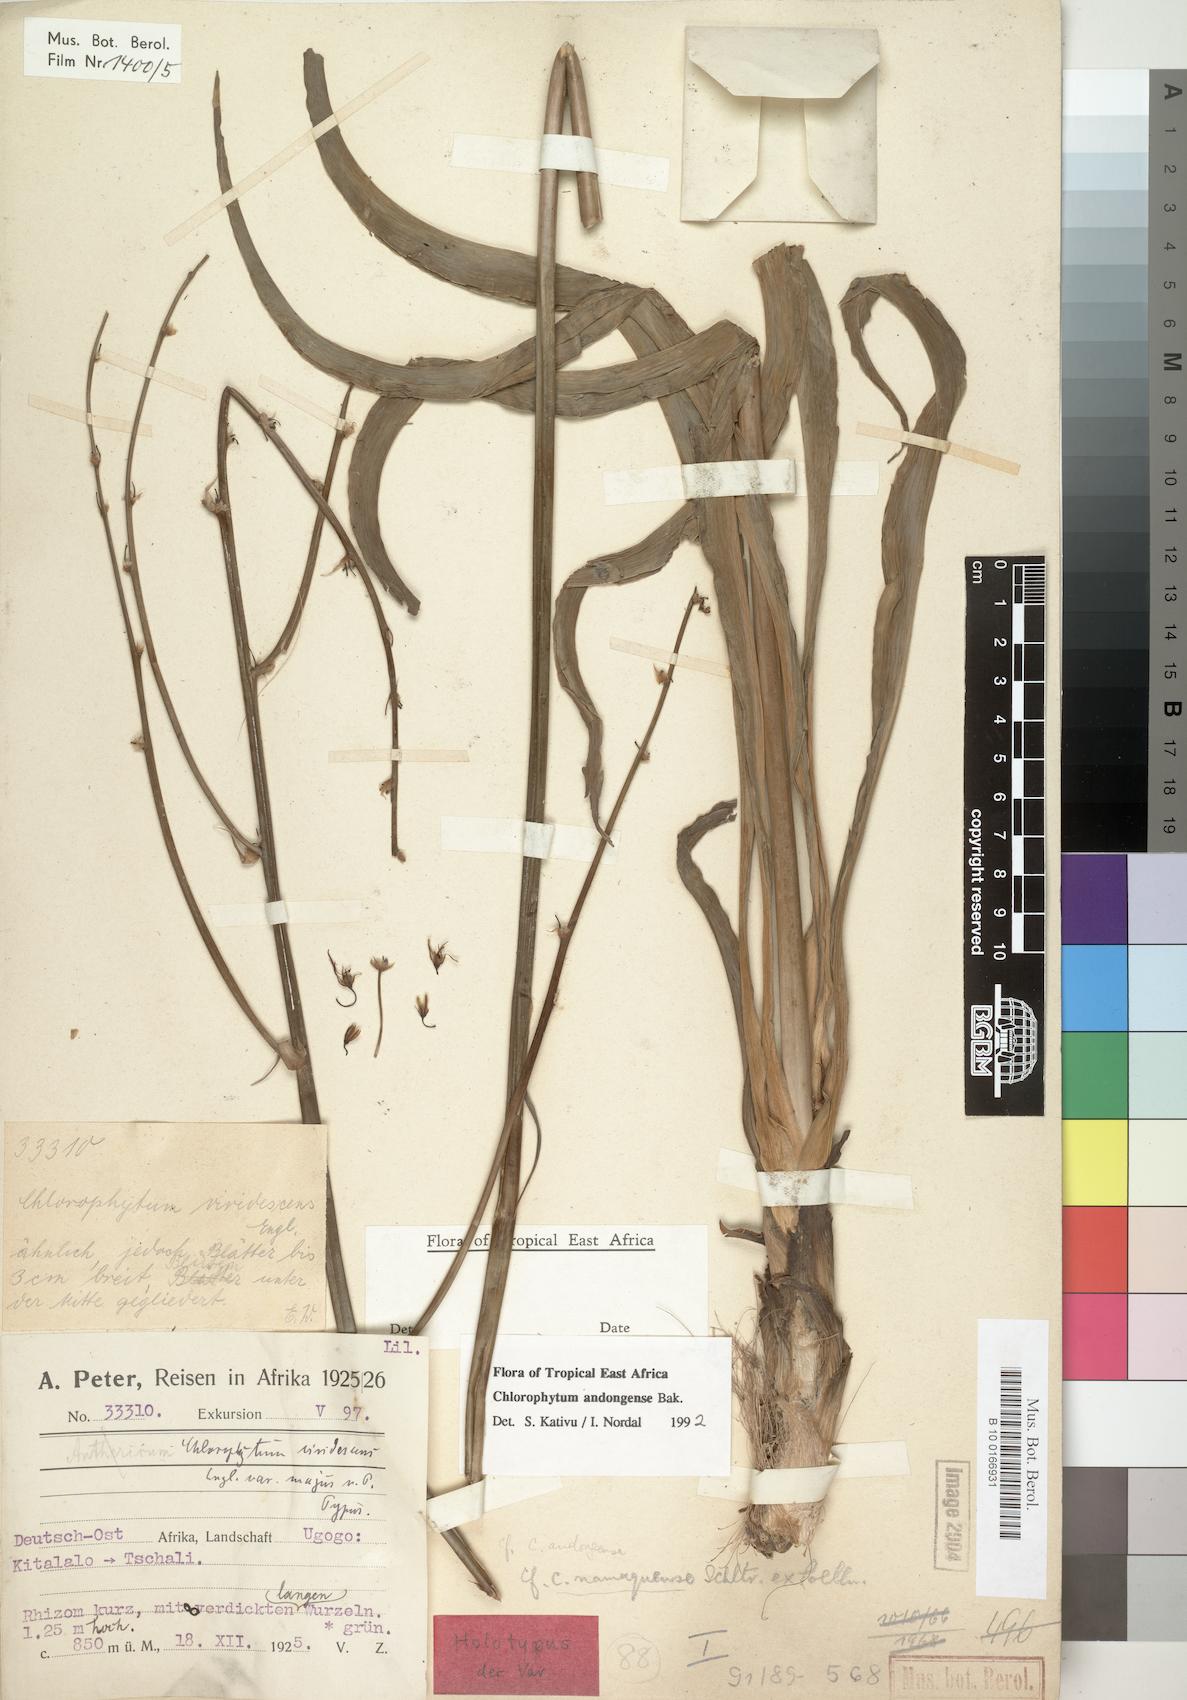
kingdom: Plantae
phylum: Tracheophyta
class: Liliopsida
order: Asparagales
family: Asparagaceae
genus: Chlorophytum
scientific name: Chlorophytum andongense
